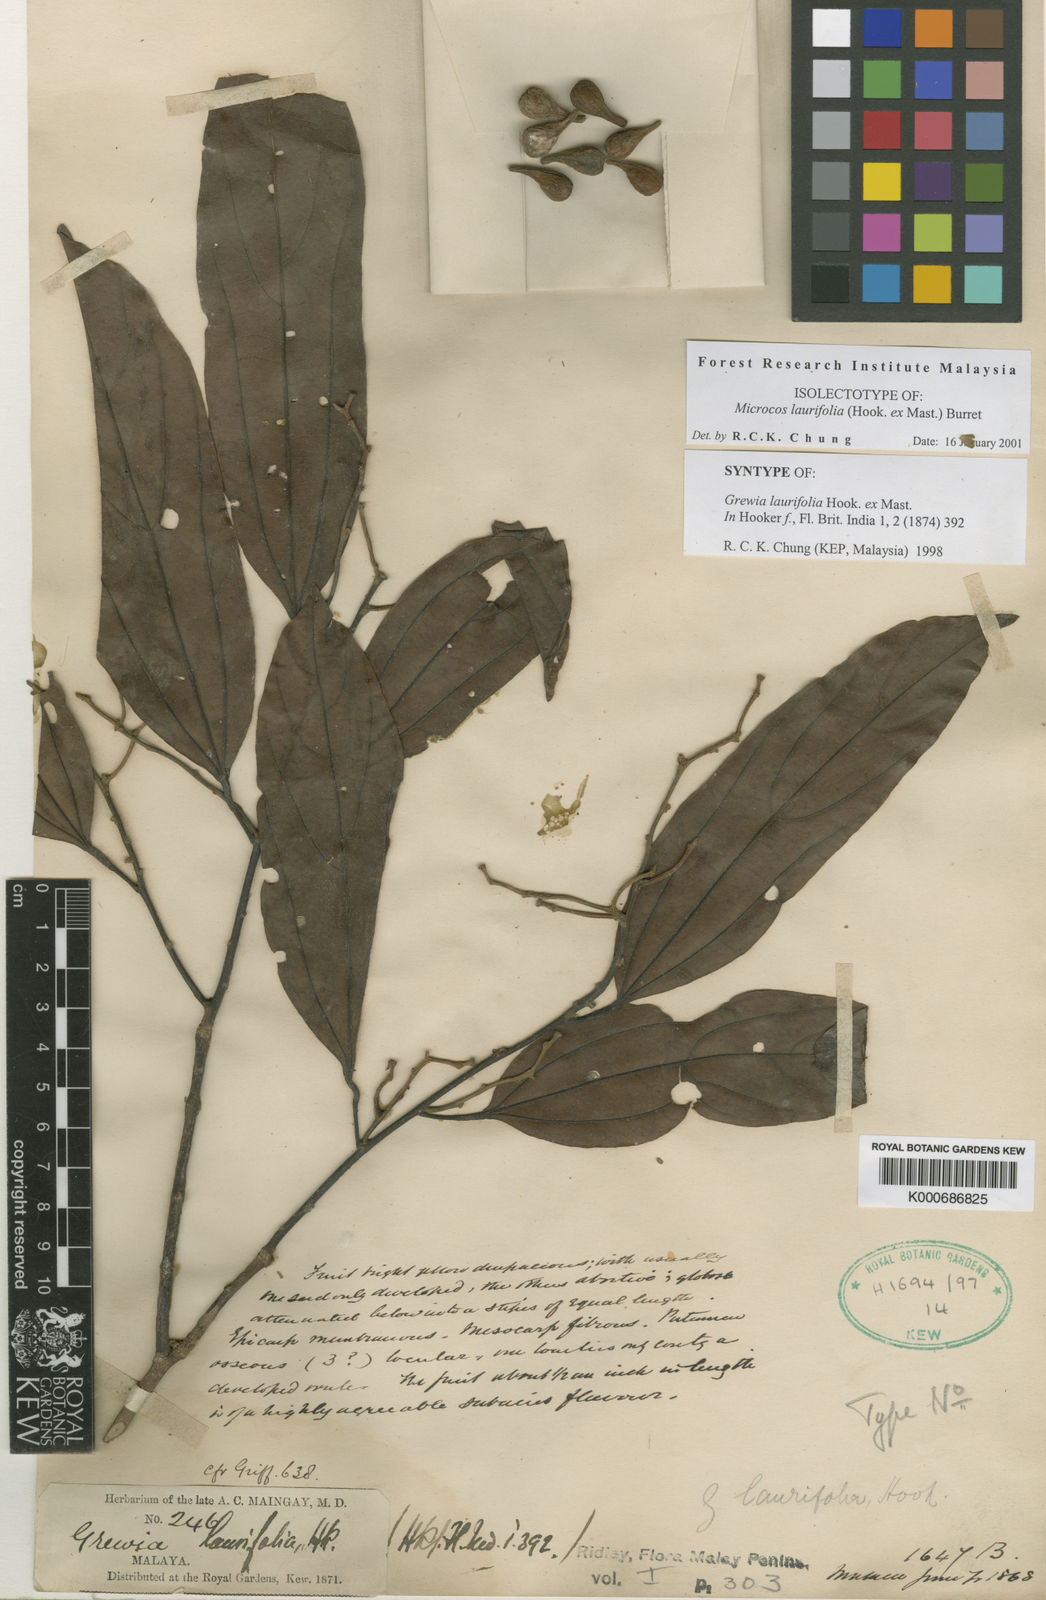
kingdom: Plantae
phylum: Tracheophyta
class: Magnoliopsida
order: Malvales
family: Malvaceae
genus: Microcos
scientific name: Microcos laurifolia
